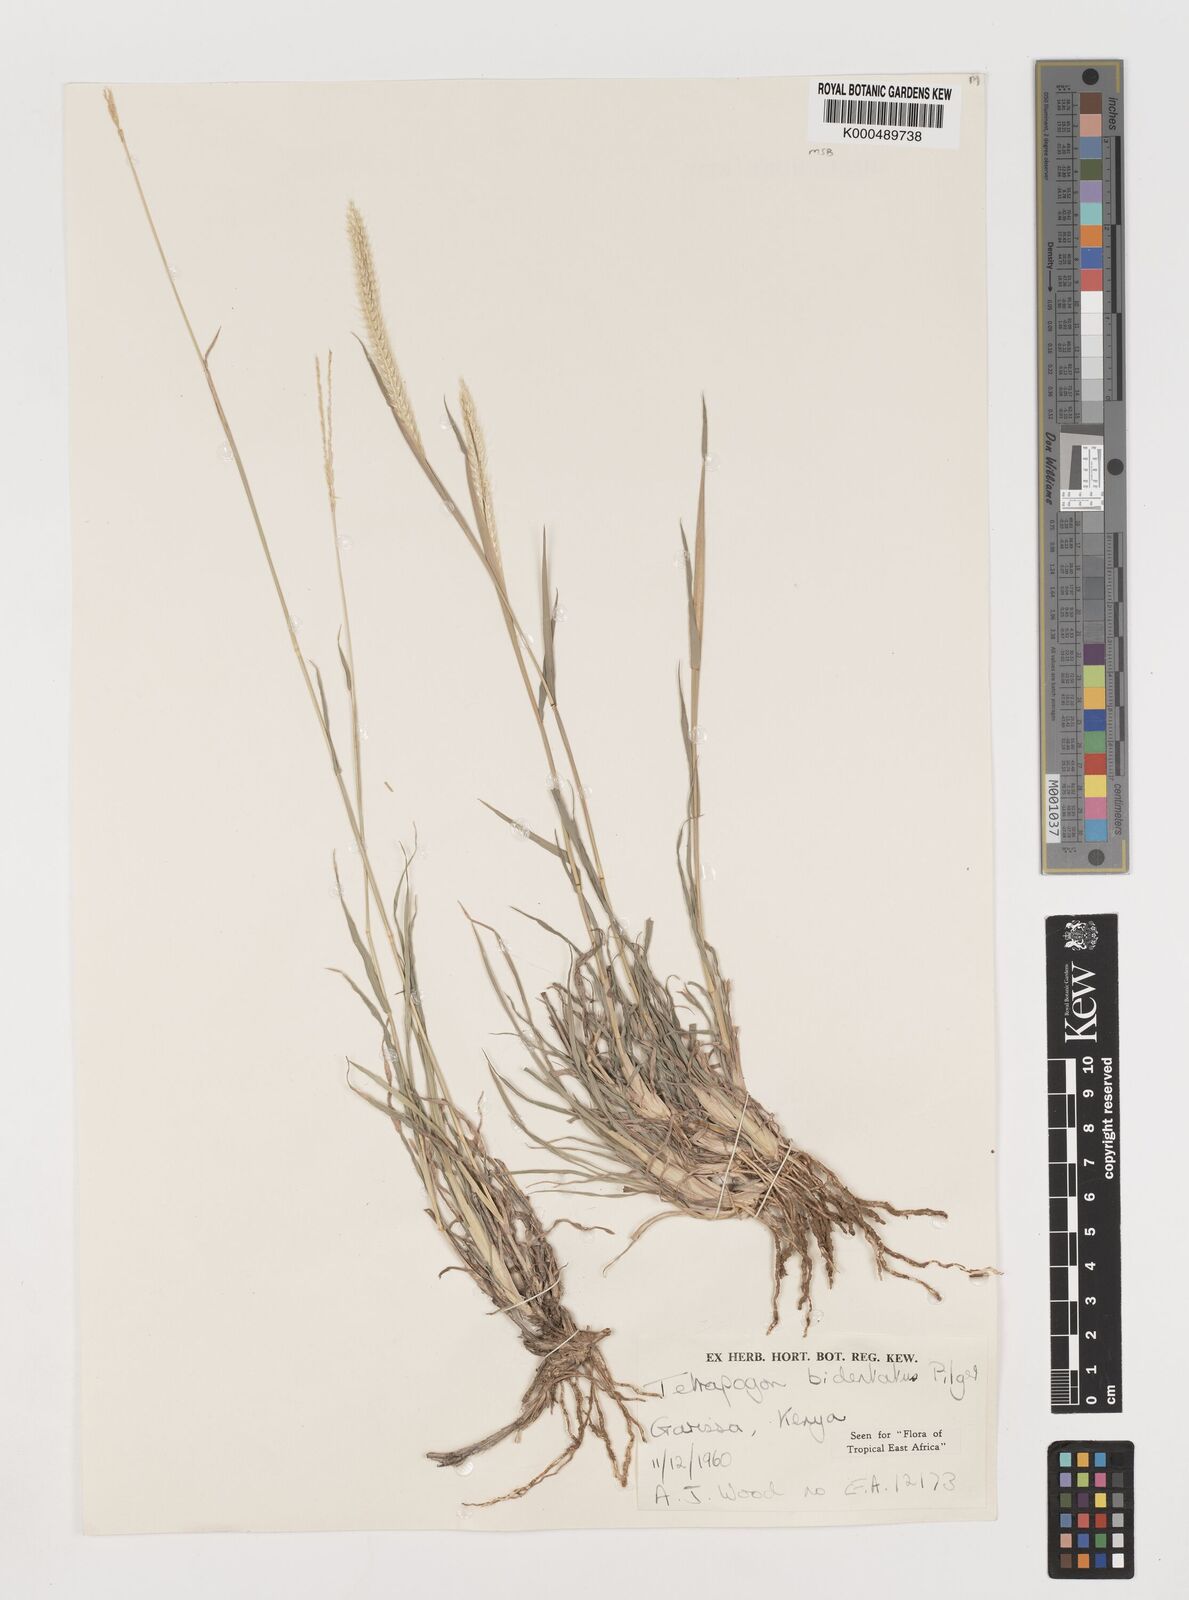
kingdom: Plantae
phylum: Tracheophyta
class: Liliopsida
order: Poales
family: Poaceae
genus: Tetrapogon
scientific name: Tetrapogon bidentatus
